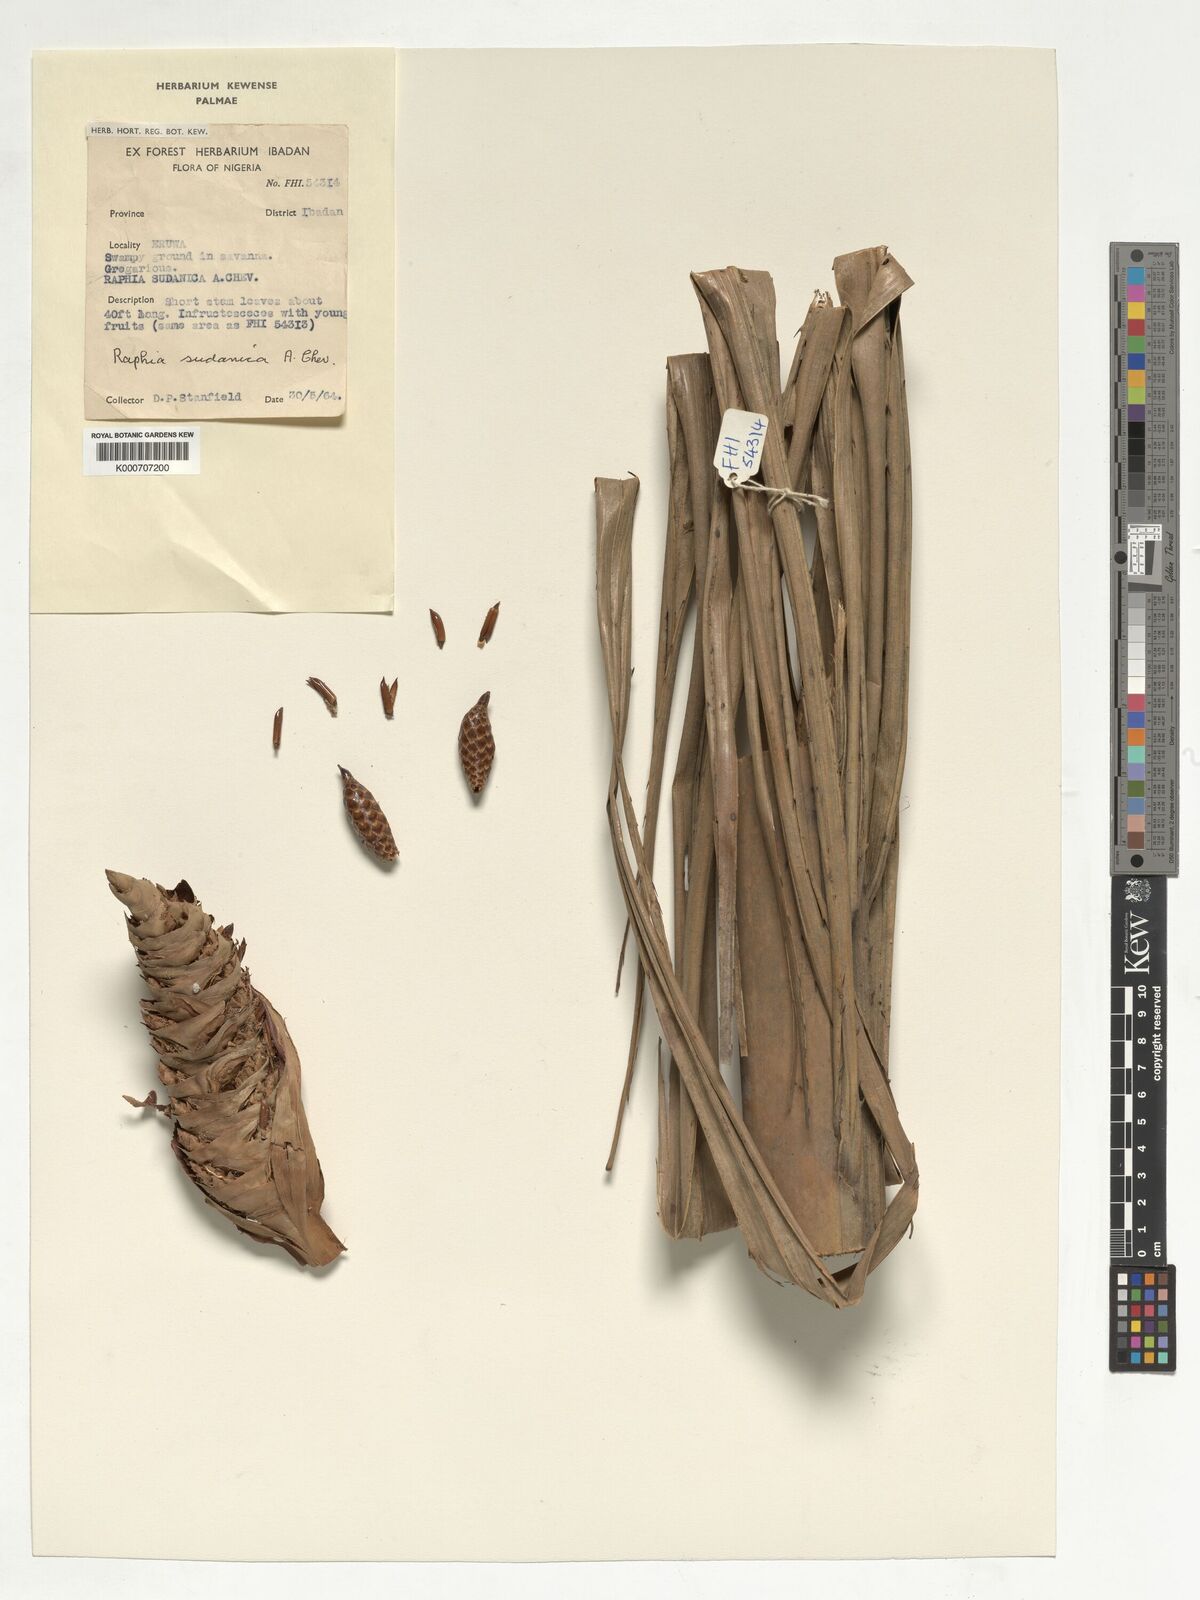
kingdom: Plantae
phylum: Tracheophyta
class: Liliopsida
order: Arecales
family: Arecaceae
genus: Raphia
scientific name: Raphia sudanica
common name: Northern raphia
